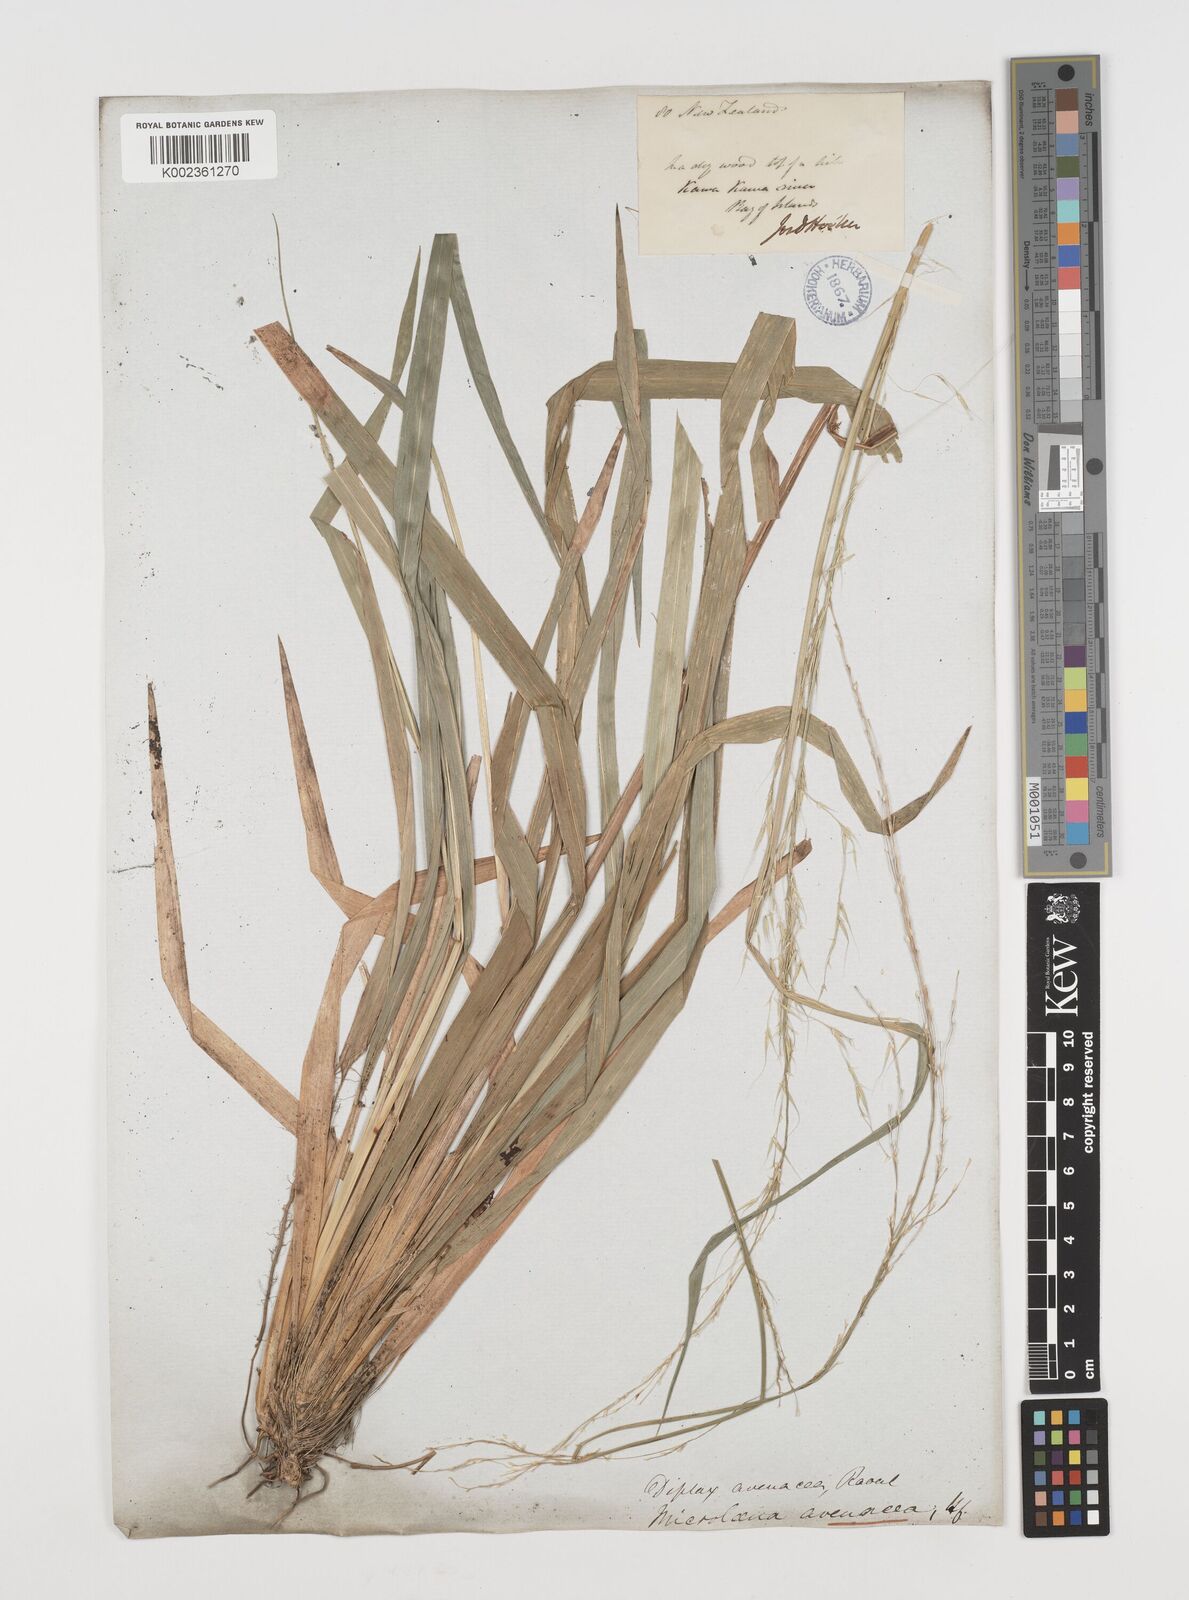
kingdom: Plantae
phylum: Tracheophyta
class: Liliopsida
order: Poales
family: Poaceae
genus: Ehrharta
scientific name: Ehrharta diplax
